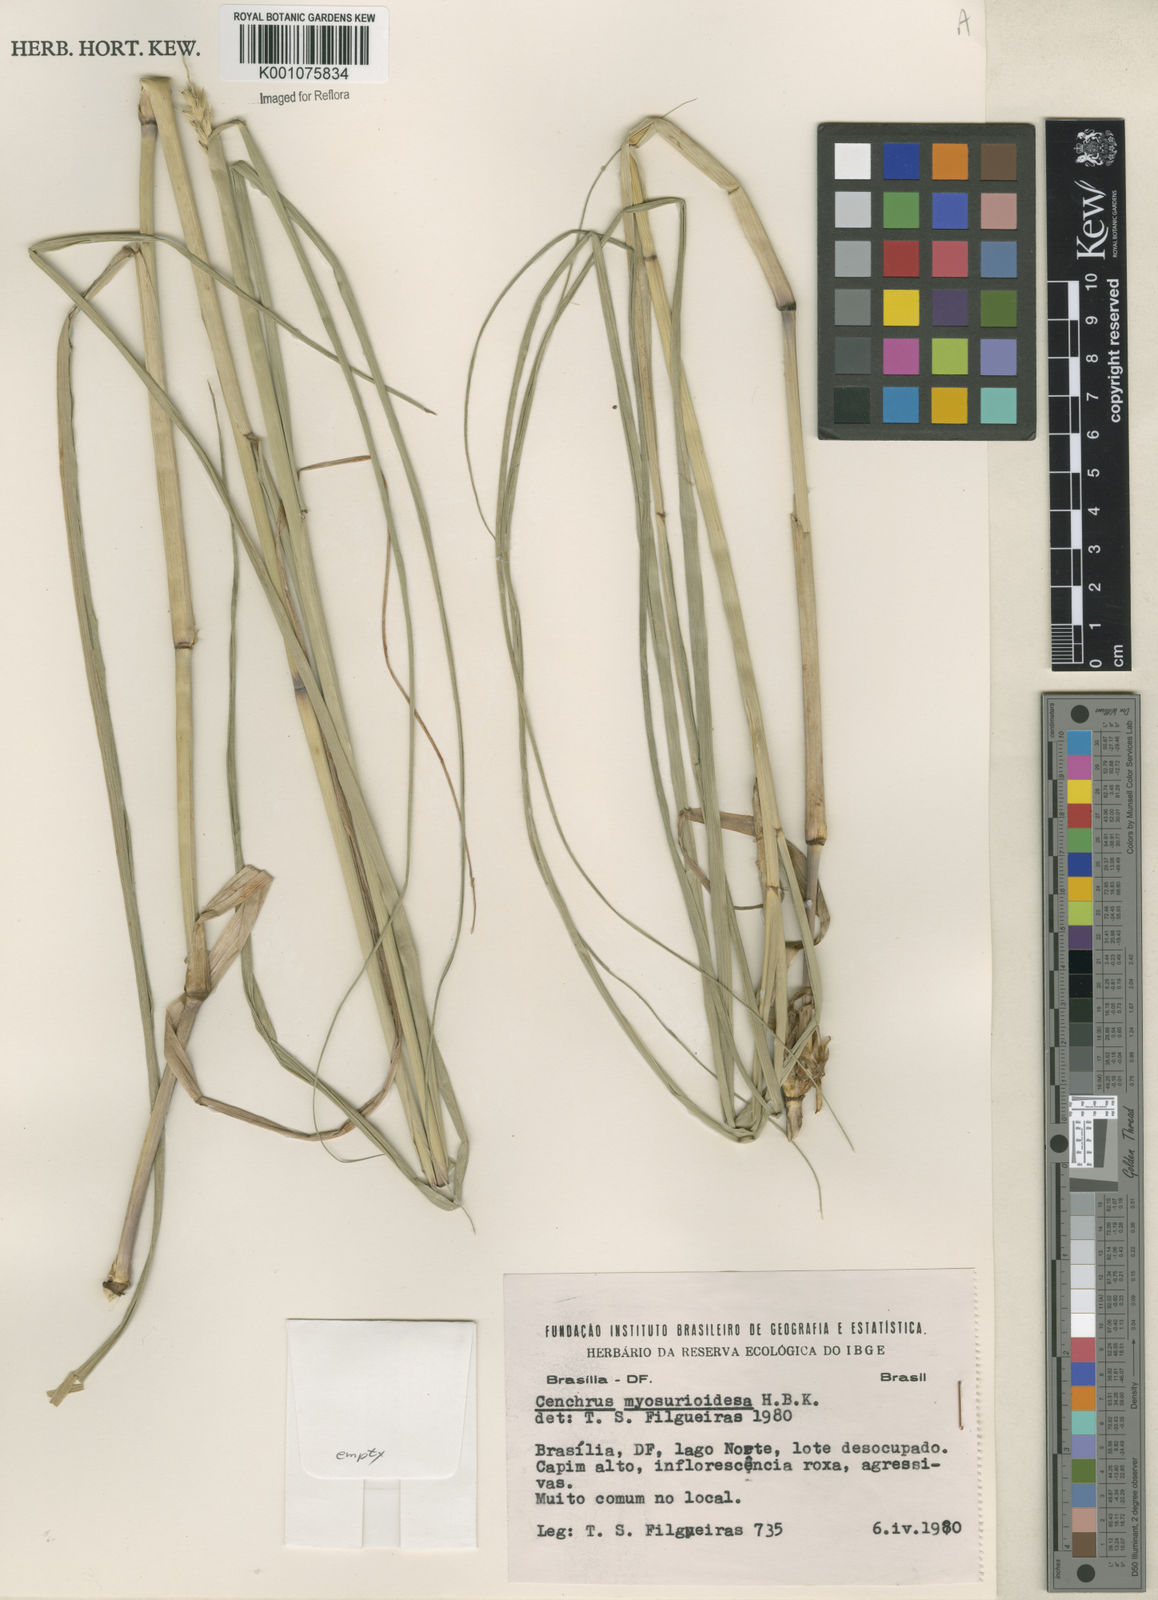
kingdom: Plantae
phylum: Tracheophyta
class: Liliopsida
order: Poales
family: Poaceae
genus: Cenchrus
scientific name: Cenchrus myosuroides
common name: Big sandbur
